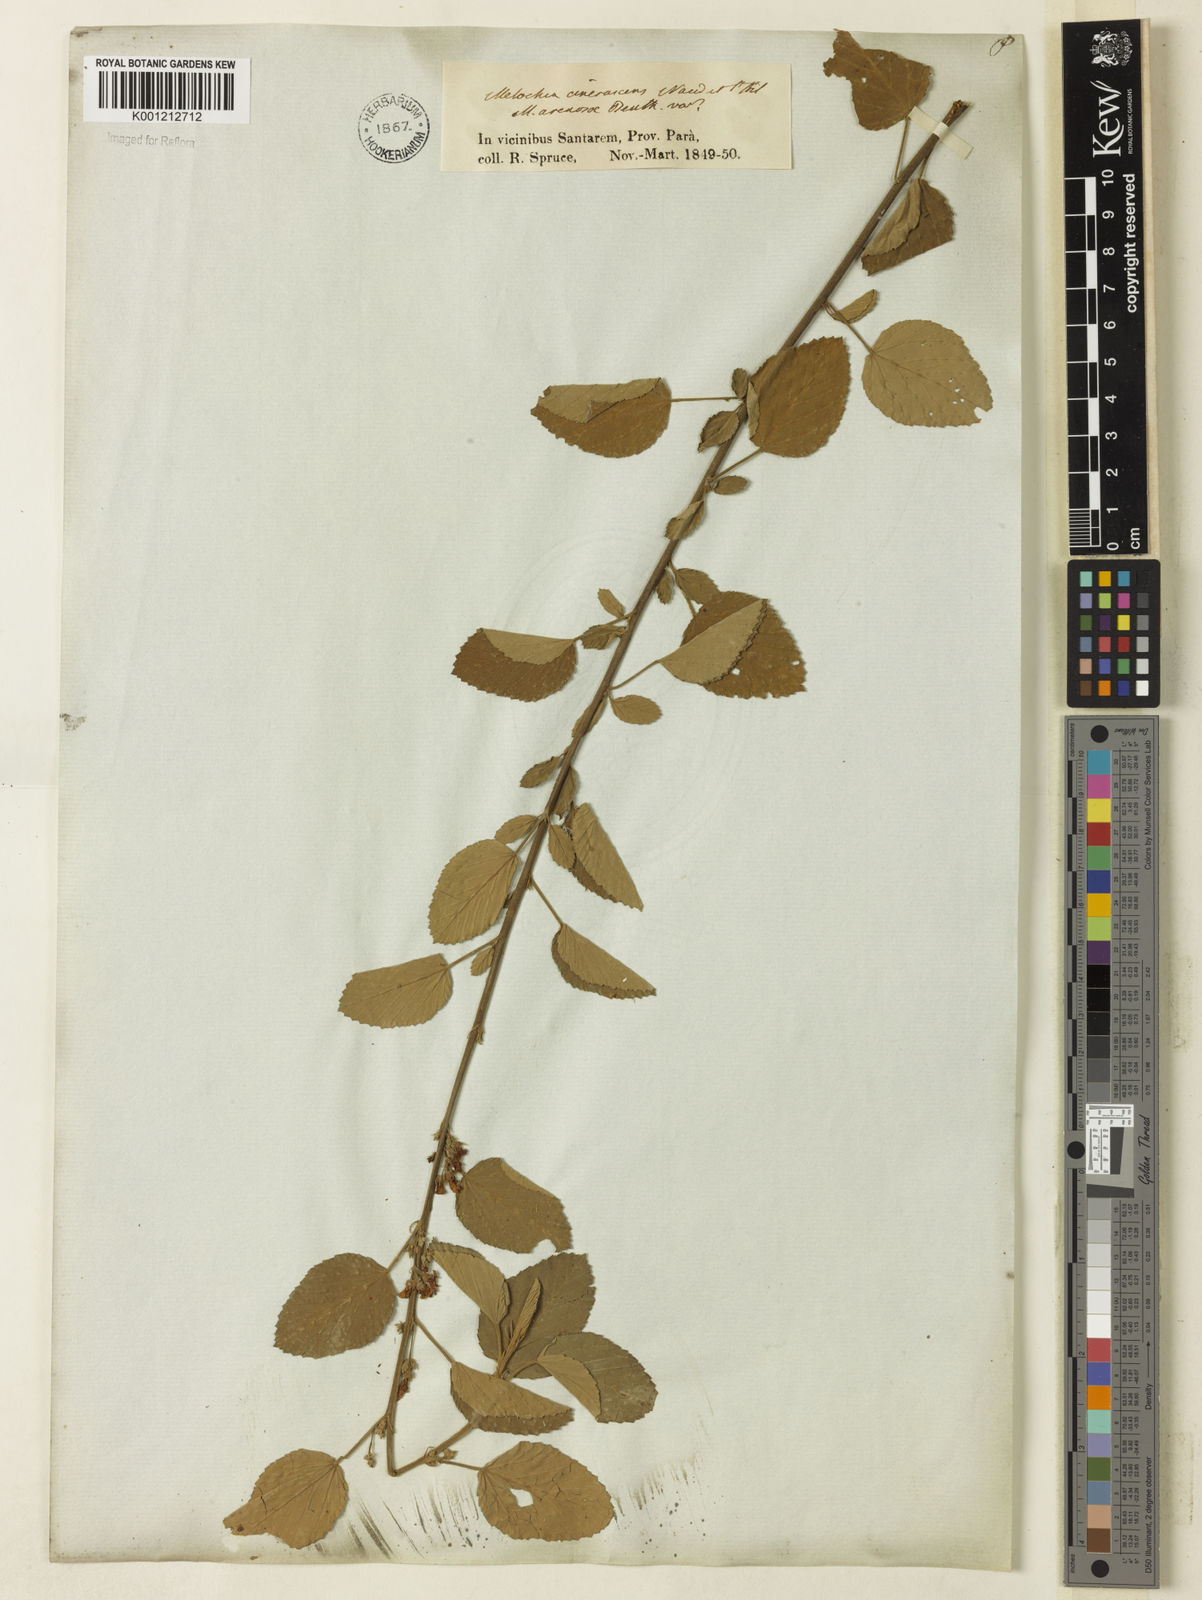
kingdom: Plantae
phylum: Tracheophyta
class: Magnoliopsida
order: Malvales
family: Malvaceae
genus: Melochia
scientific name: Melochia arenosa
